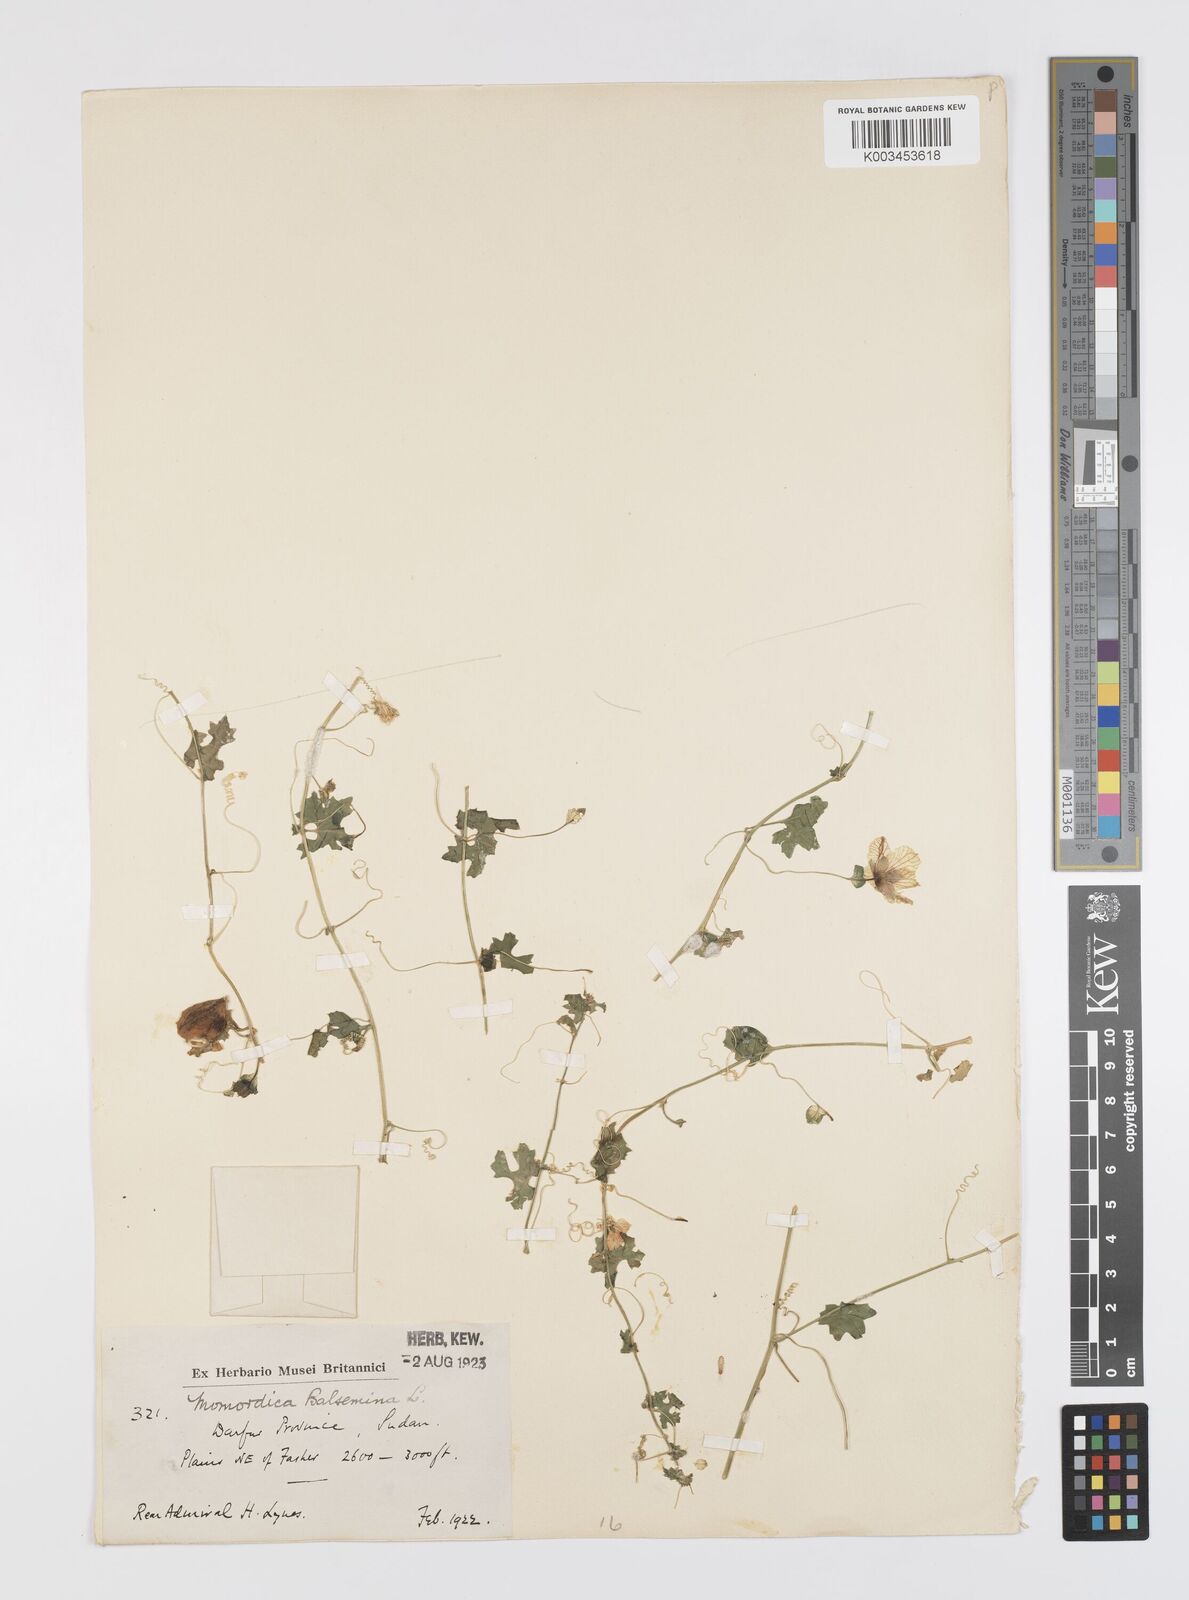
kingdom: Plantae
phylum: Tracheophyta
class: Magnoliopsida
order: Cucurbitales
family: Cucurbitaceae
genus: Momordica
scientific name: Momordica balsamina
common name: Southern balsampear
